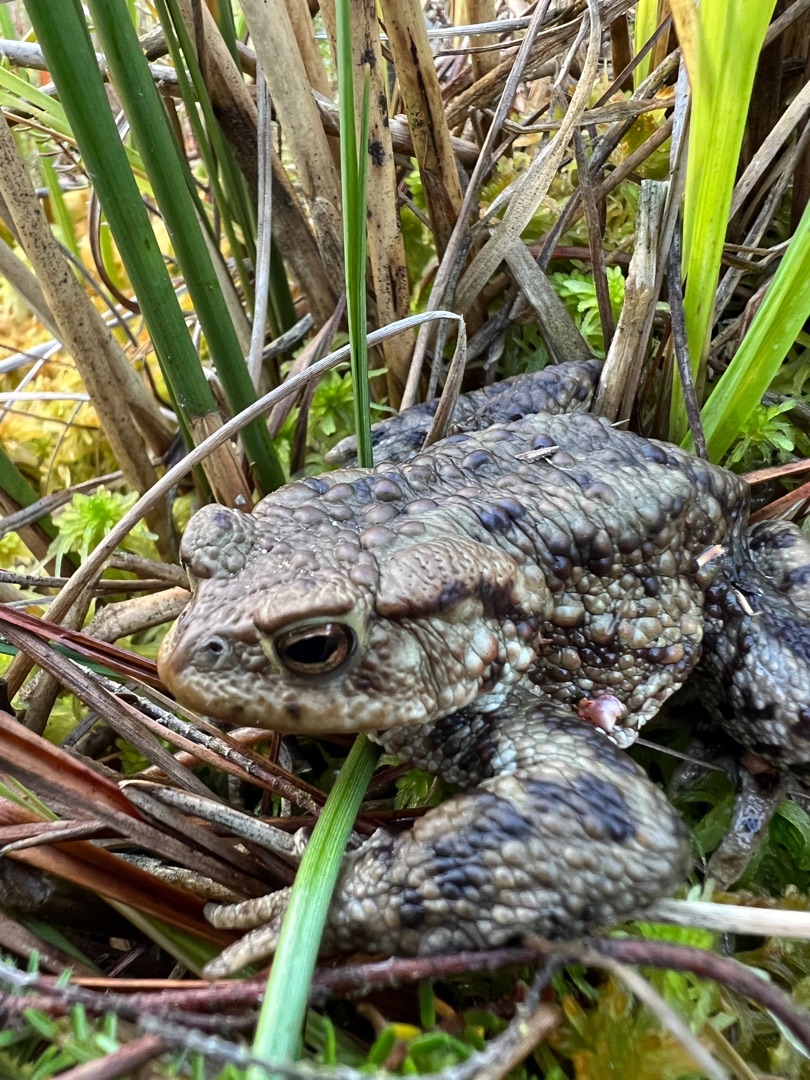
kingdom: Animalia
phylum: Chordata
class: Amphibia
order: Anura
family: Bufonidae
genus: Bufo
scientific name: Bufo bufo
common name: Skrubtudse
